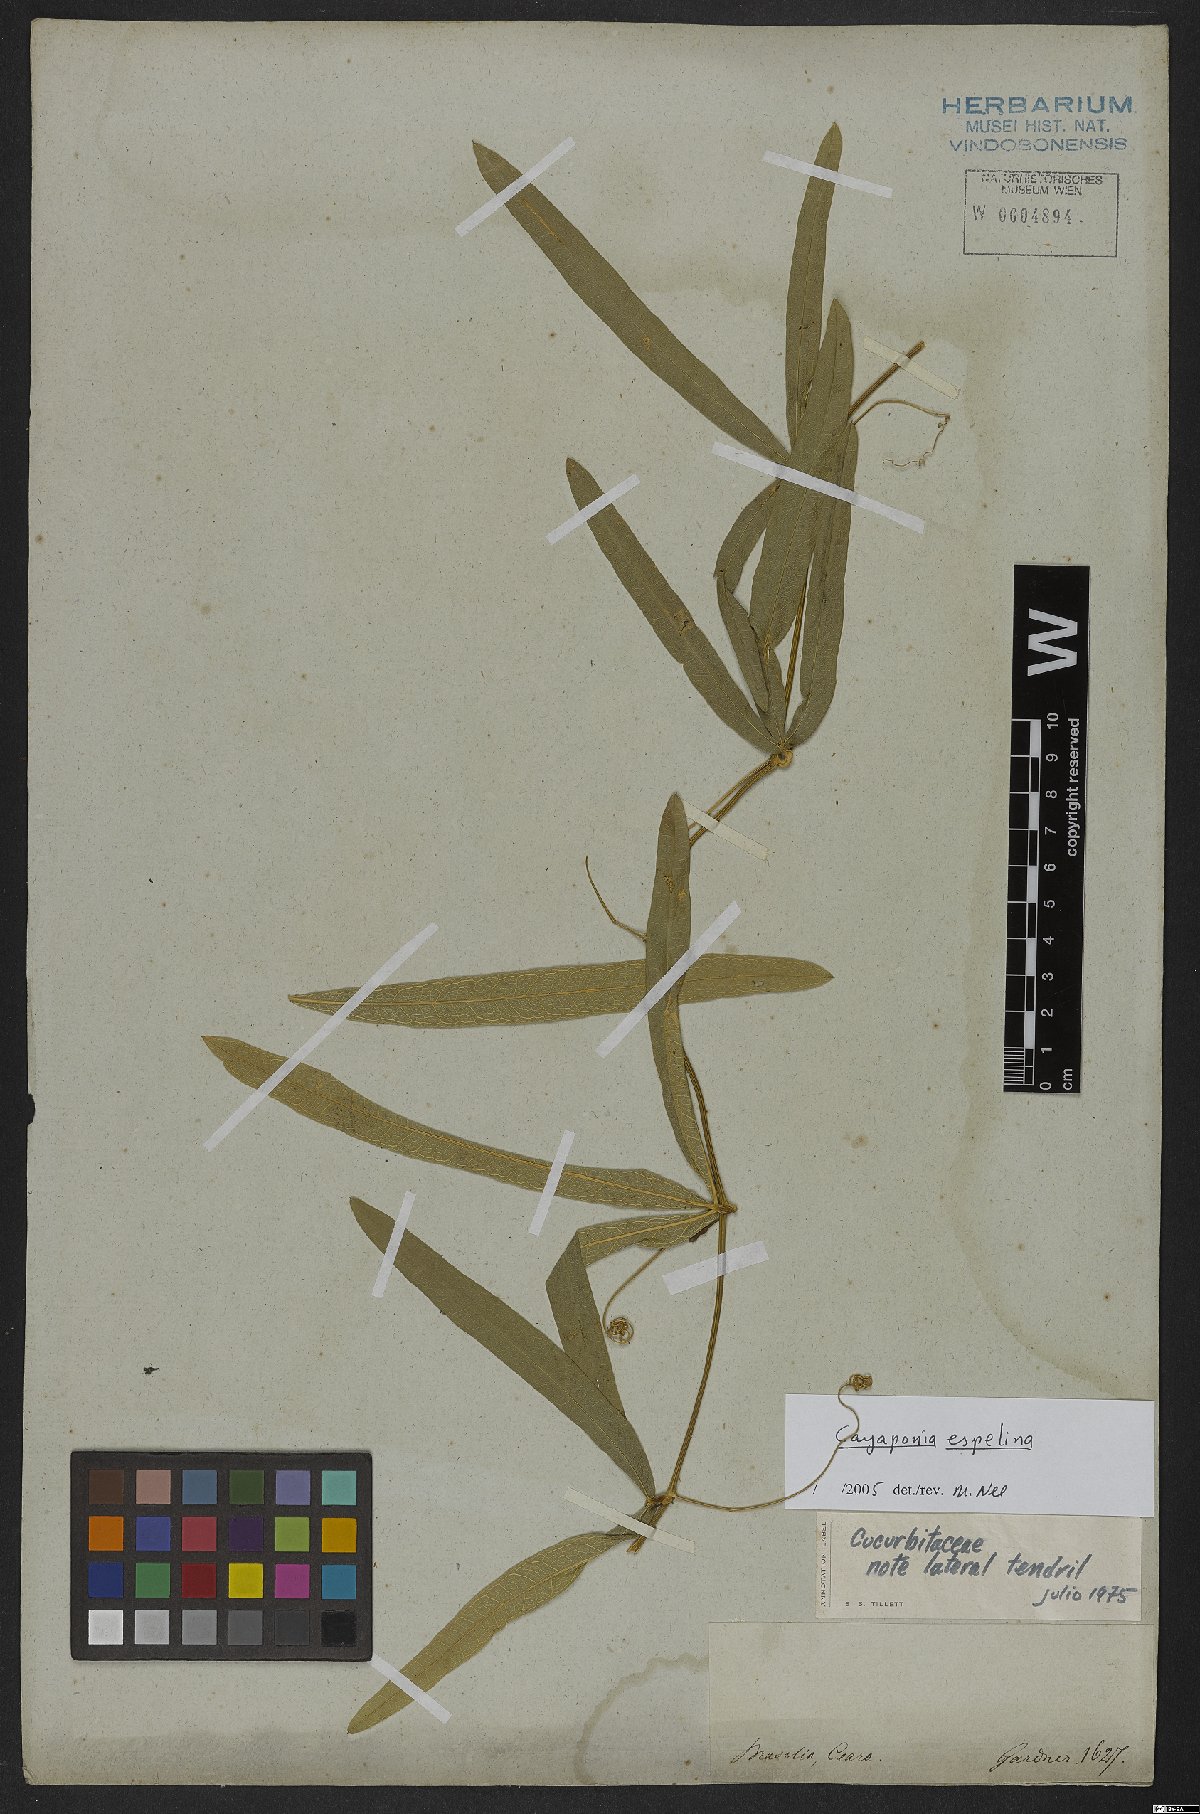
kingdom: Plantae
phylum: Tracheophyta
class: Magnoliopsida
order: Cucurbitales
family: Cucurbitaceae
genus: Cayaponia
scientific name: Cayaponia espelina
